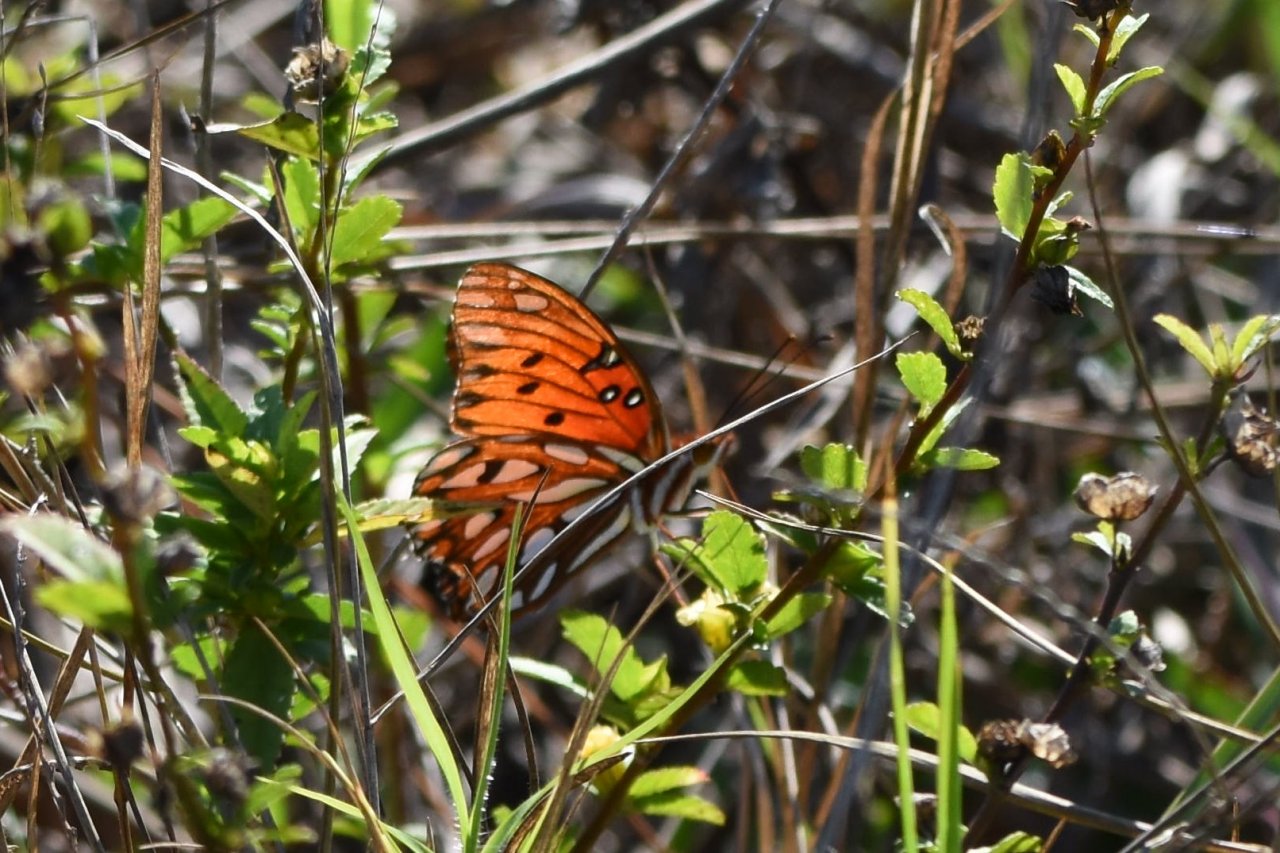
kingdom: Animalia
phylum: Arthropoda
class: Insecta
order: Lepidoptera
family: Nymphalidae
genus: Dione
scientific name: Dione vanillae
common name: Gulf Fritillary
